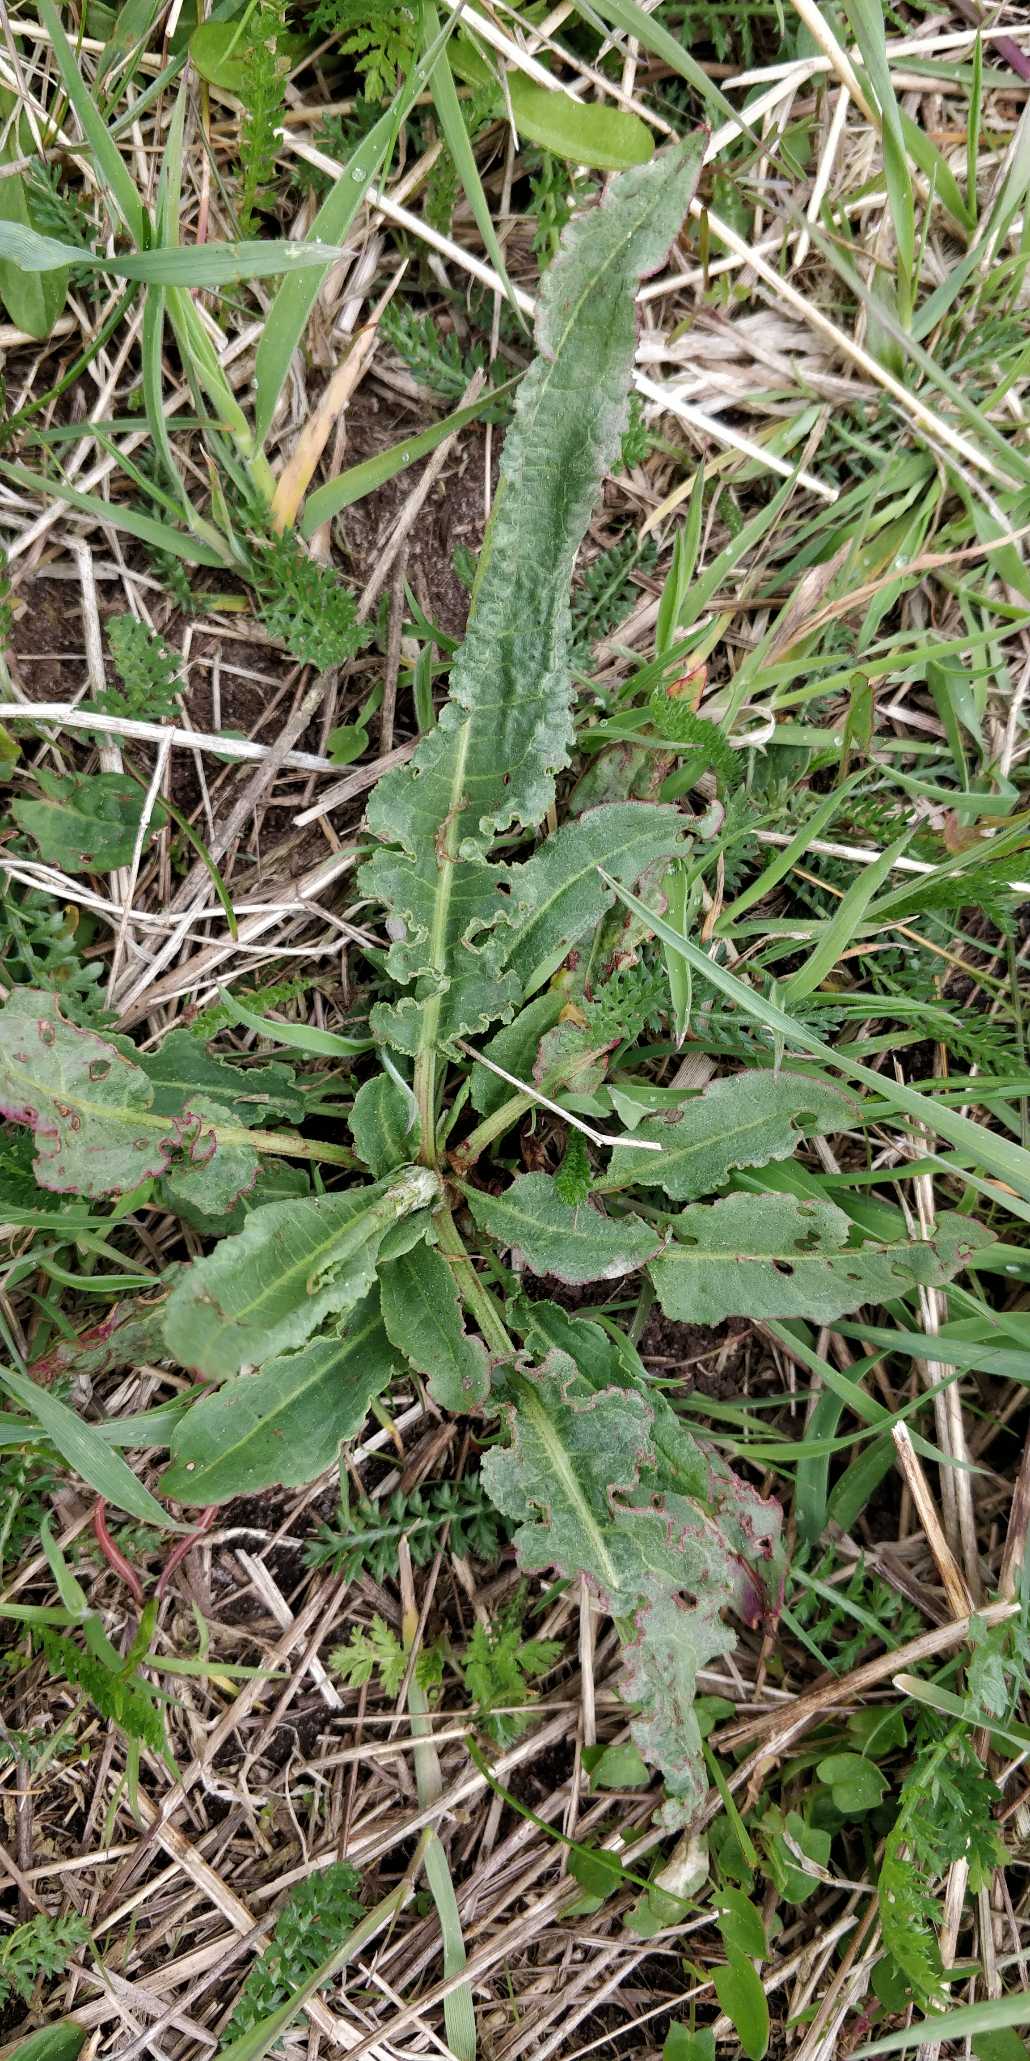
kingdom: Plantae
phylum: Tracheophyta
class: Magnoliopsida
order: Caryophyllales
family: Polygonaceae
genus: Rumex
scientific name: Rumex crispus
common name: Kruset skræppe
